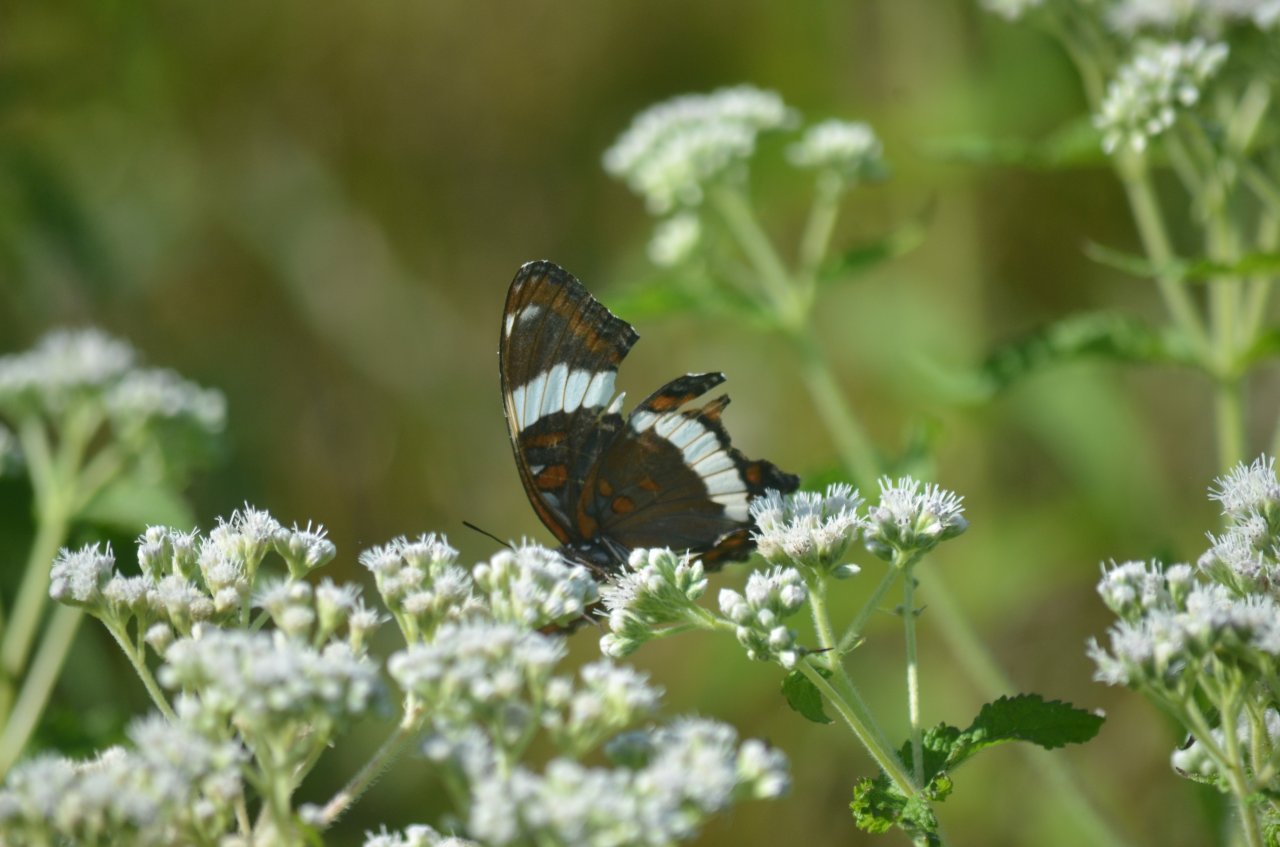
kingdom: Animalia
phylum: Arthropoda
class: Insecta
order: Lepidoptera
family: Nymphalidae
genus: Limenitis
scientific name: Limenitis arthemis
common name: Red-spotted Admiral
